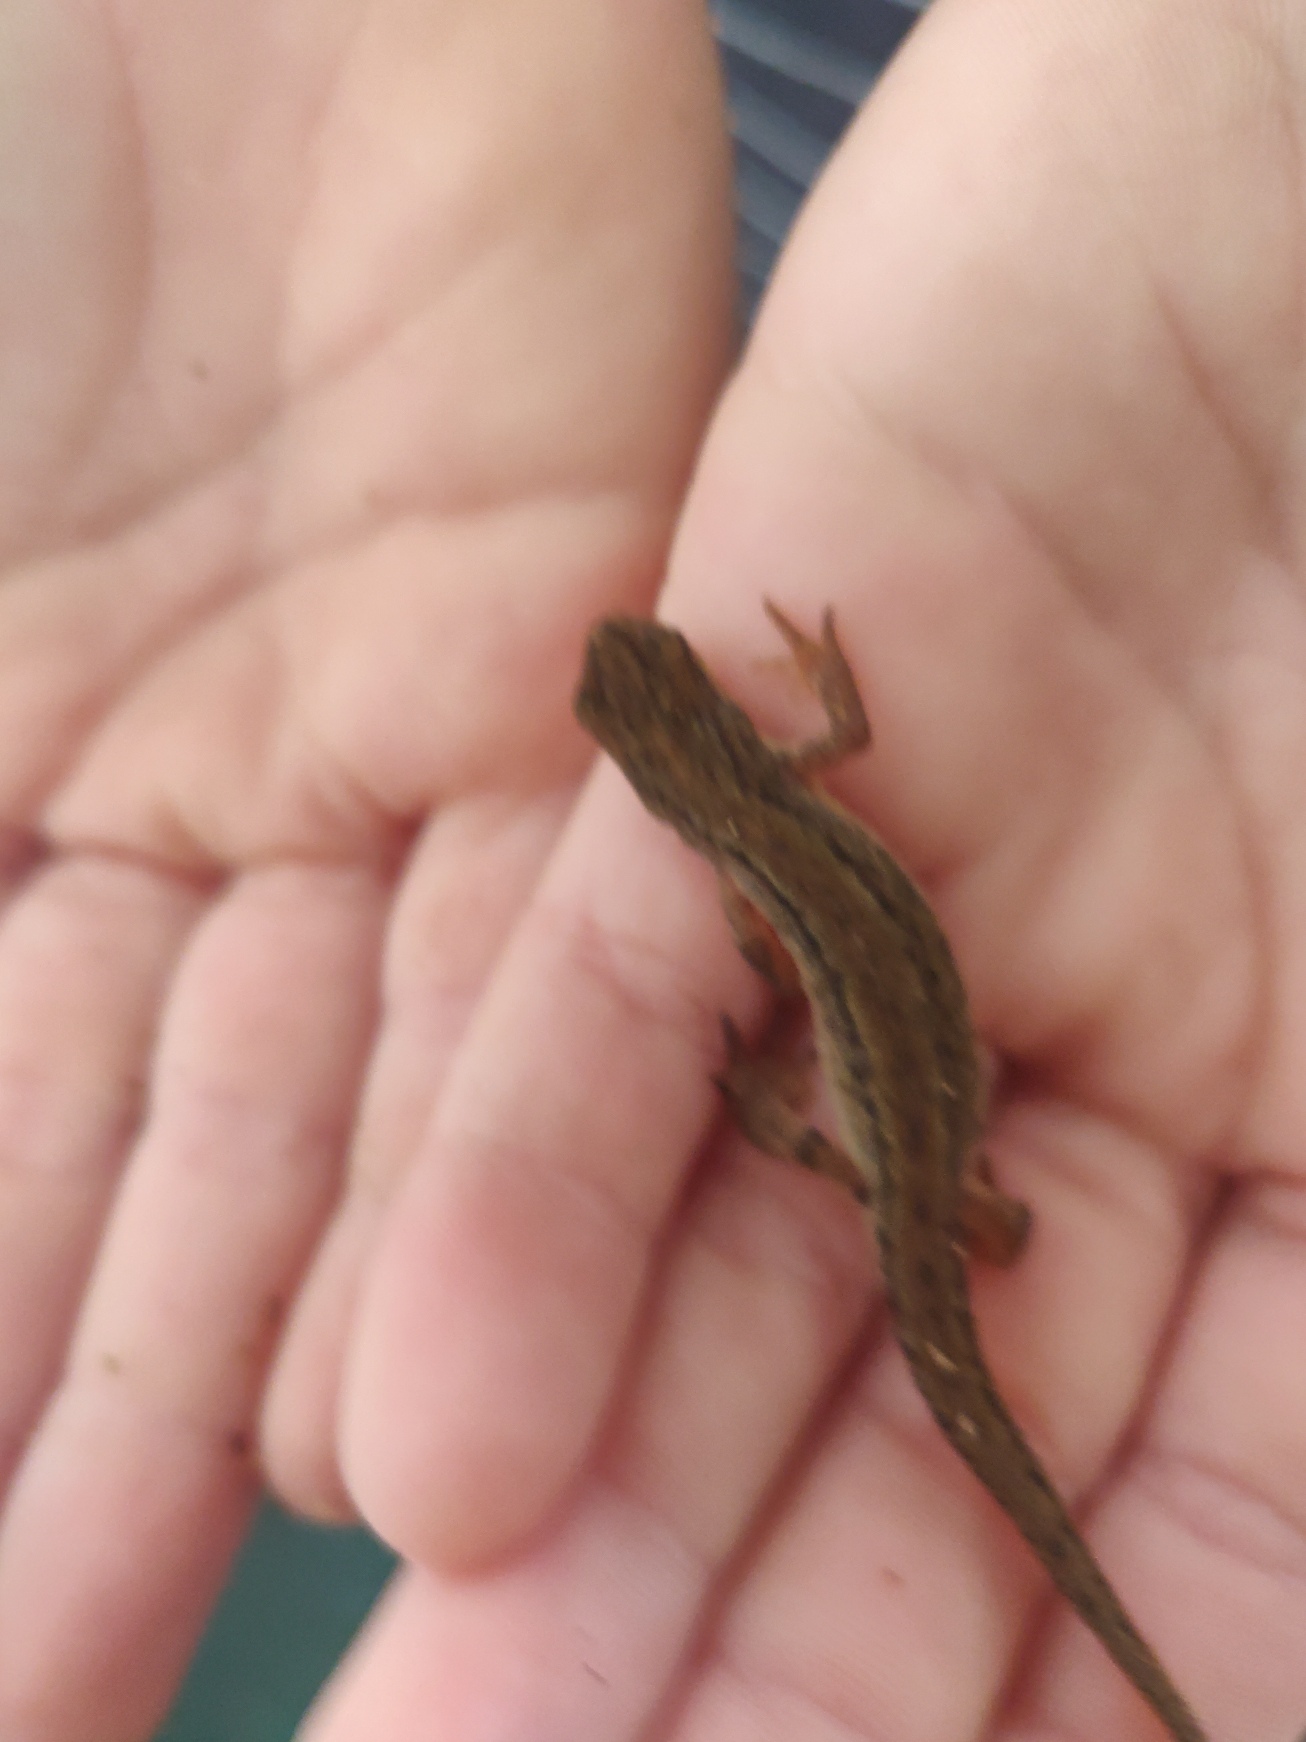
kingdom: Animalia
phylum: Chordata
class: Amphibia
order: Caudata
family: Salamandridae
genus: Lissotriton
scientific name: Lissotriton vulgaris
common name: Lille vandsalamander
